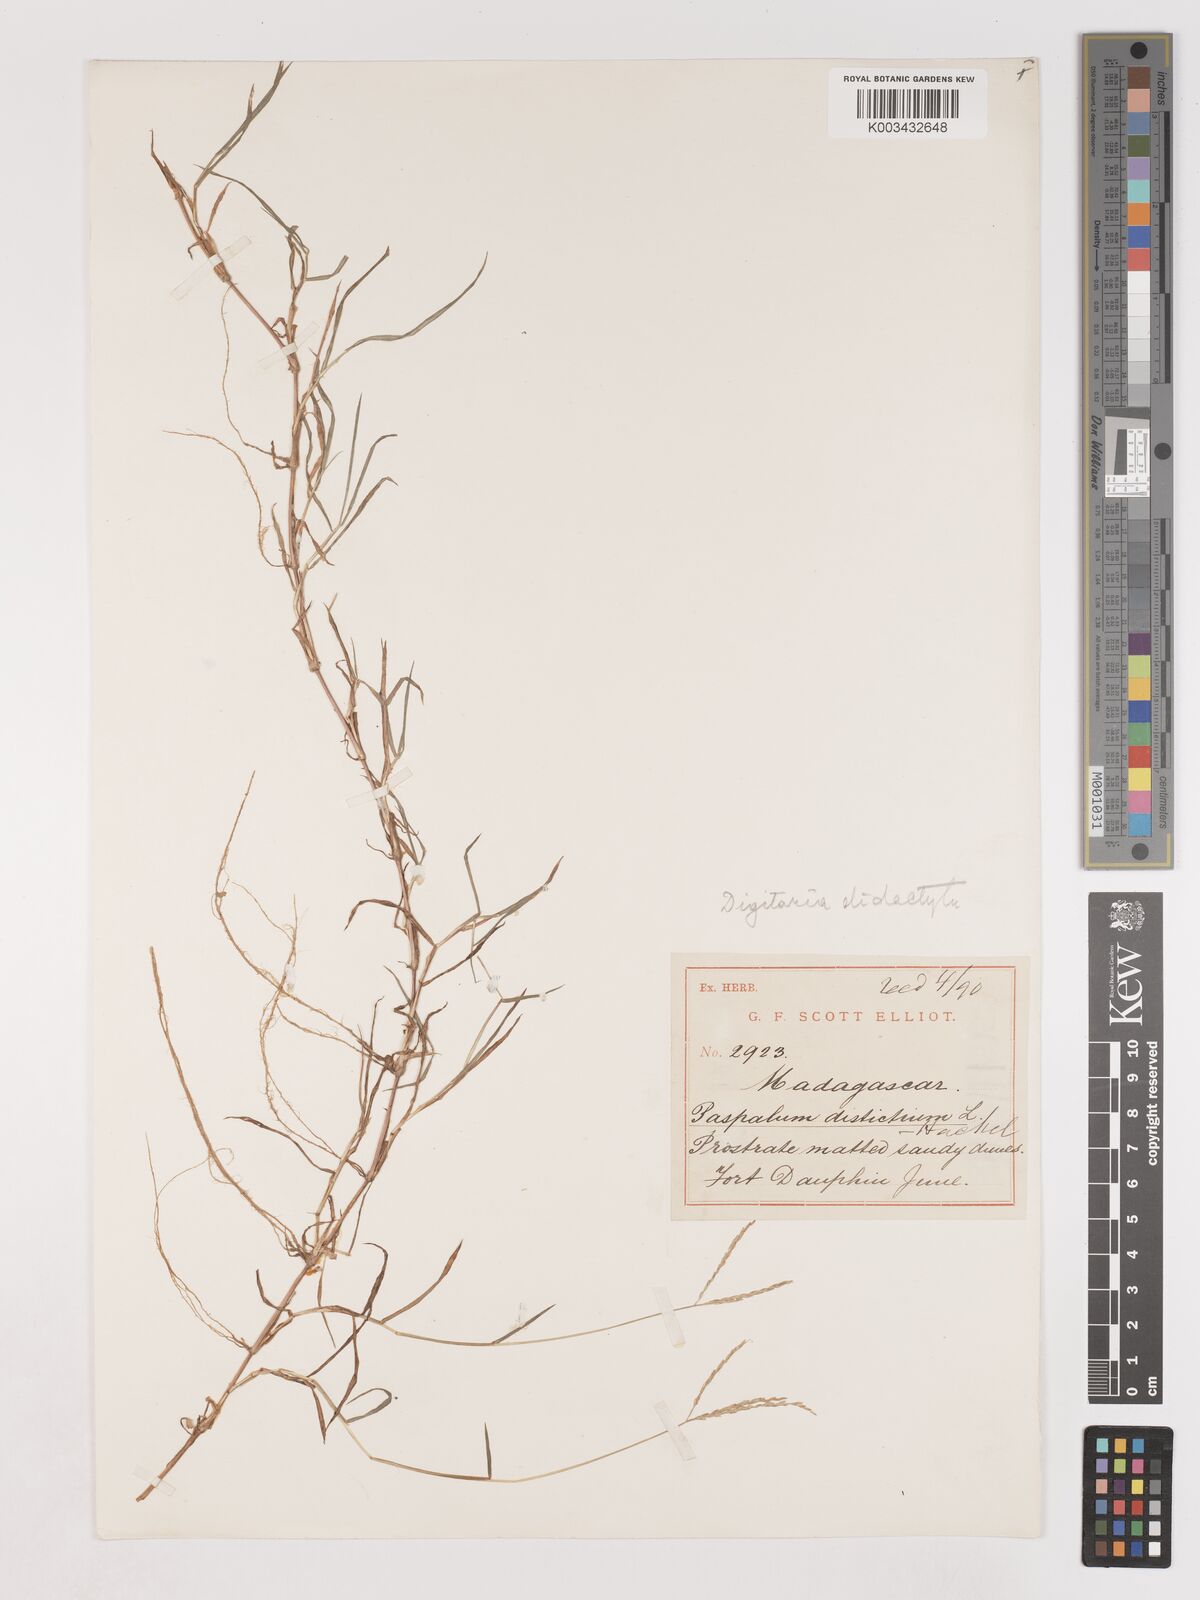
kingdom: Plantae
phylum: Tracheophyta
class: Liliopsida
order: Poales
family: Poaceae
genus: Digitaria
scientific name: Digitaria didactyla
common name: Blue couch
